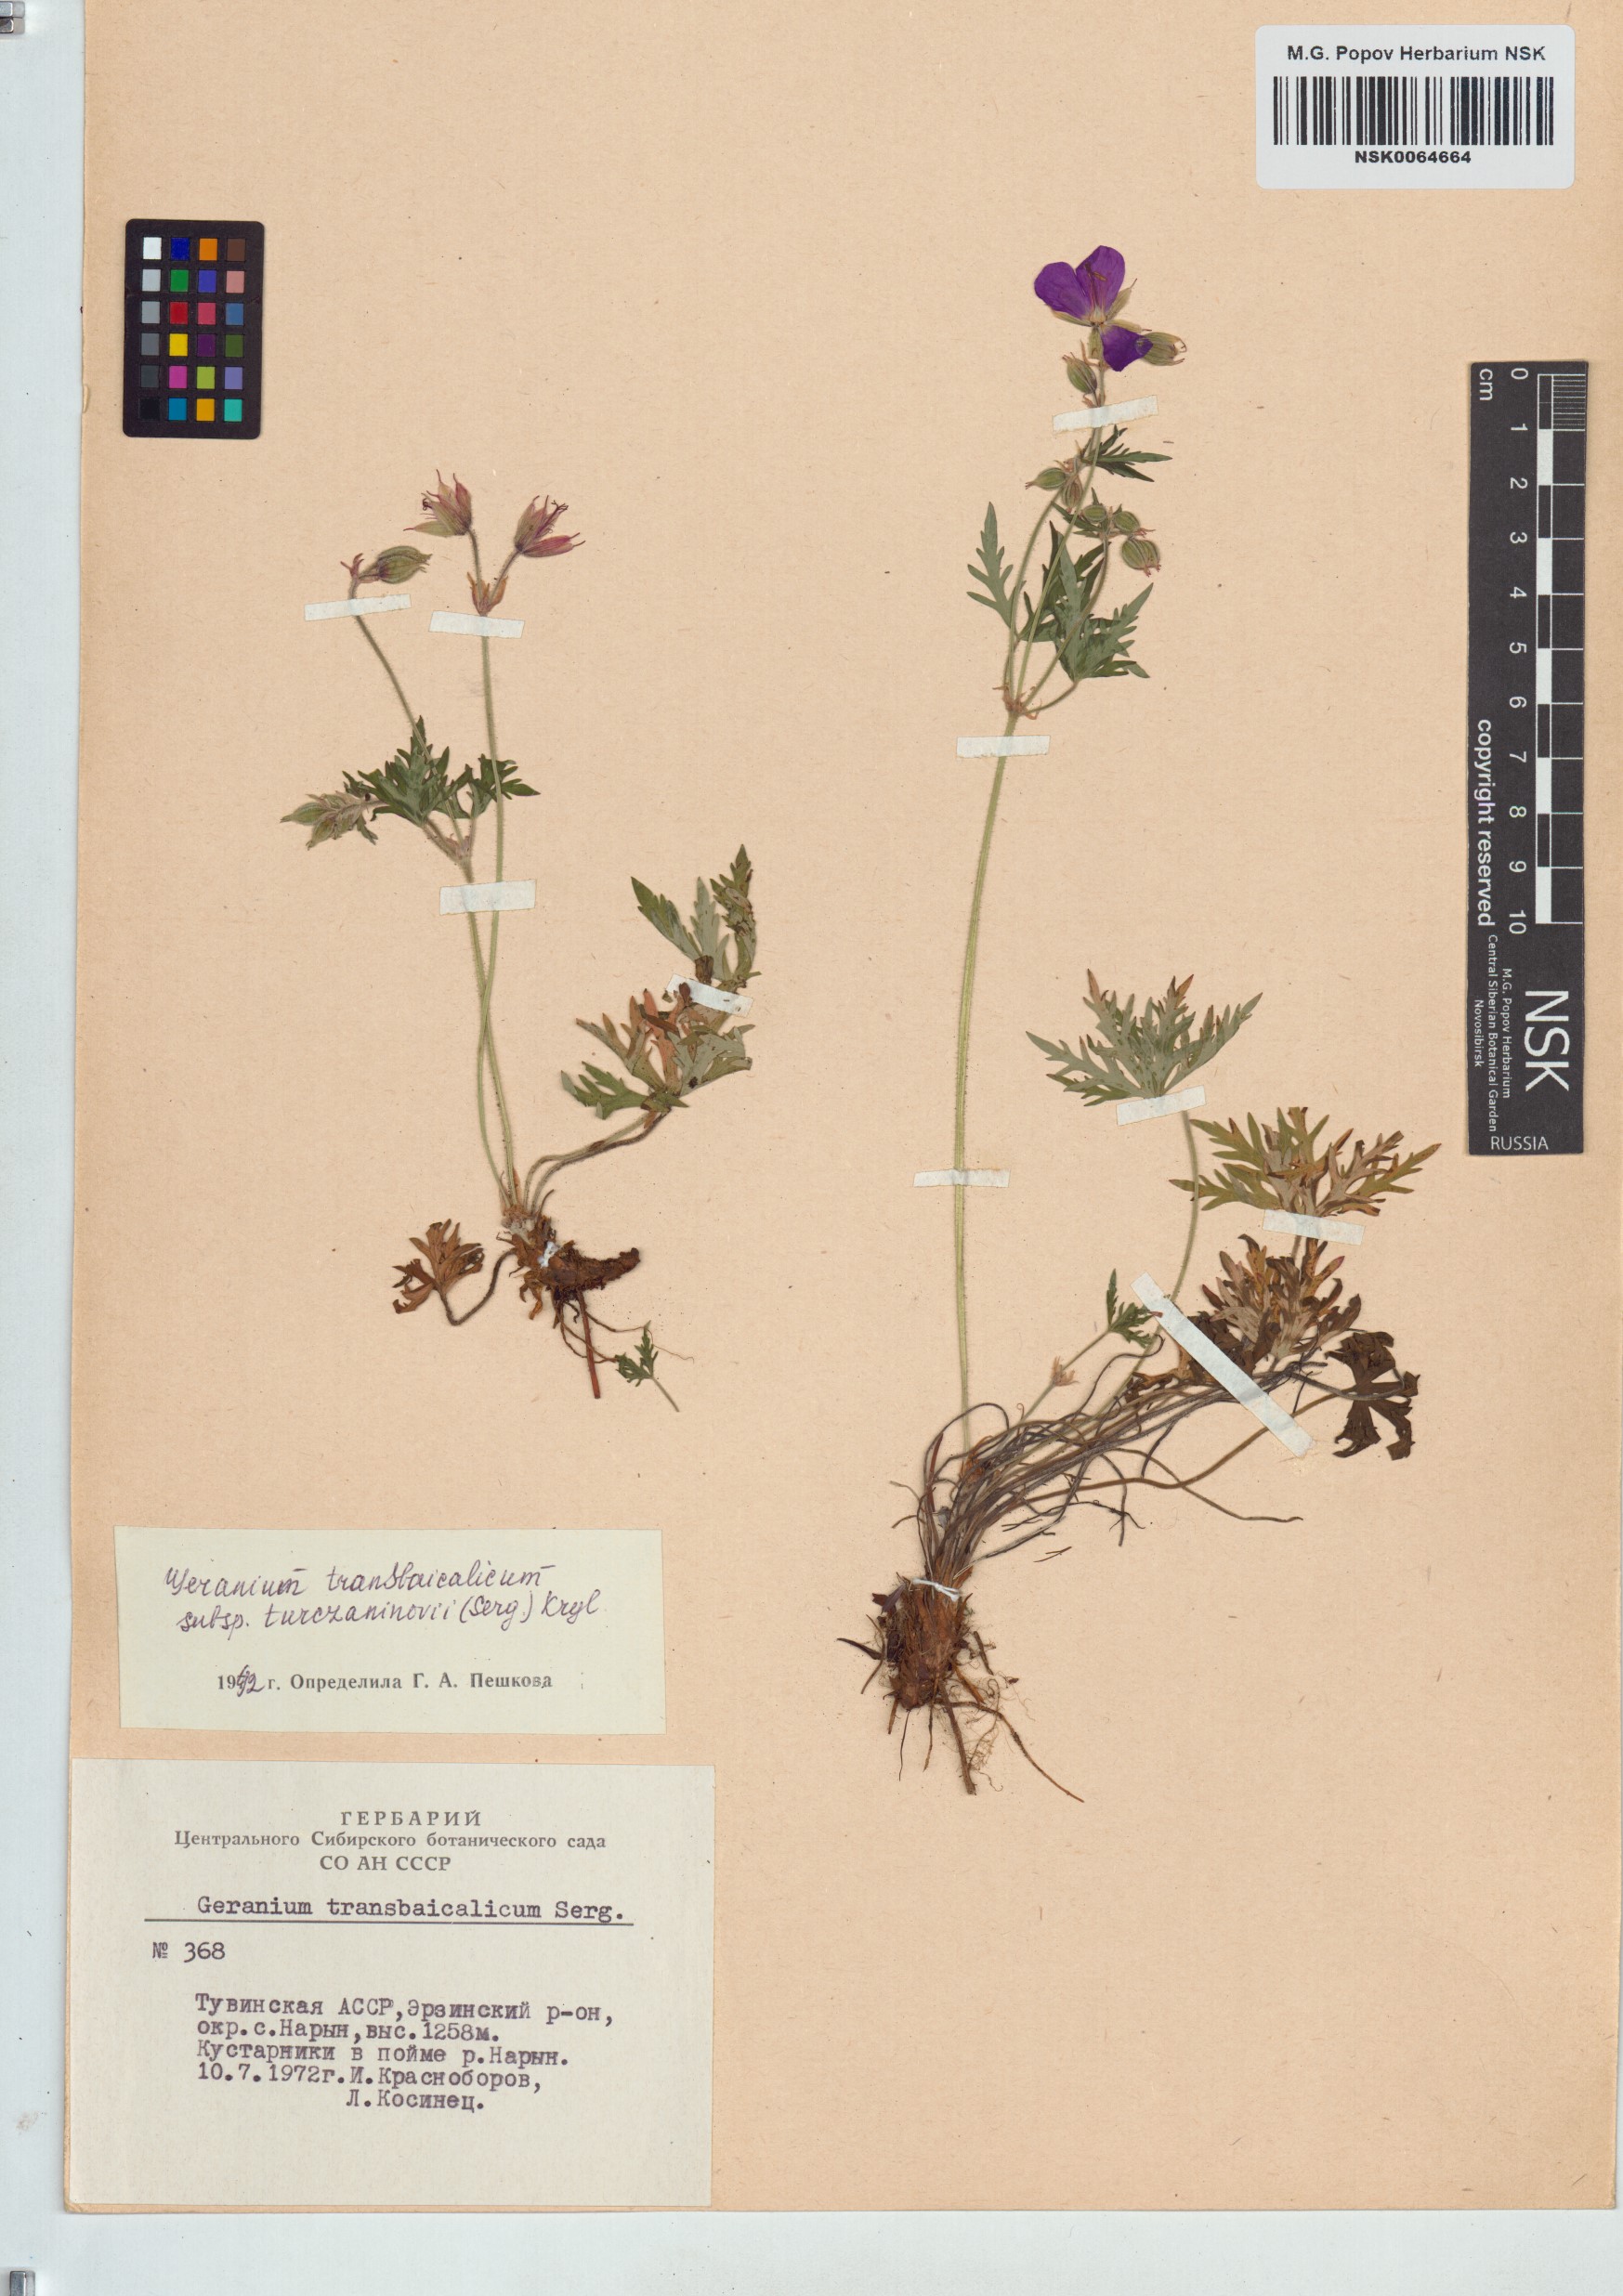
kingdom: Plantae
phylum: Tracheophyta
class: Magnoliopsida
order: Geraniales
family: Geraniaceae
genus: Geranium
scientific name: Geranium pratense
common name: Meadow crane's-bill
